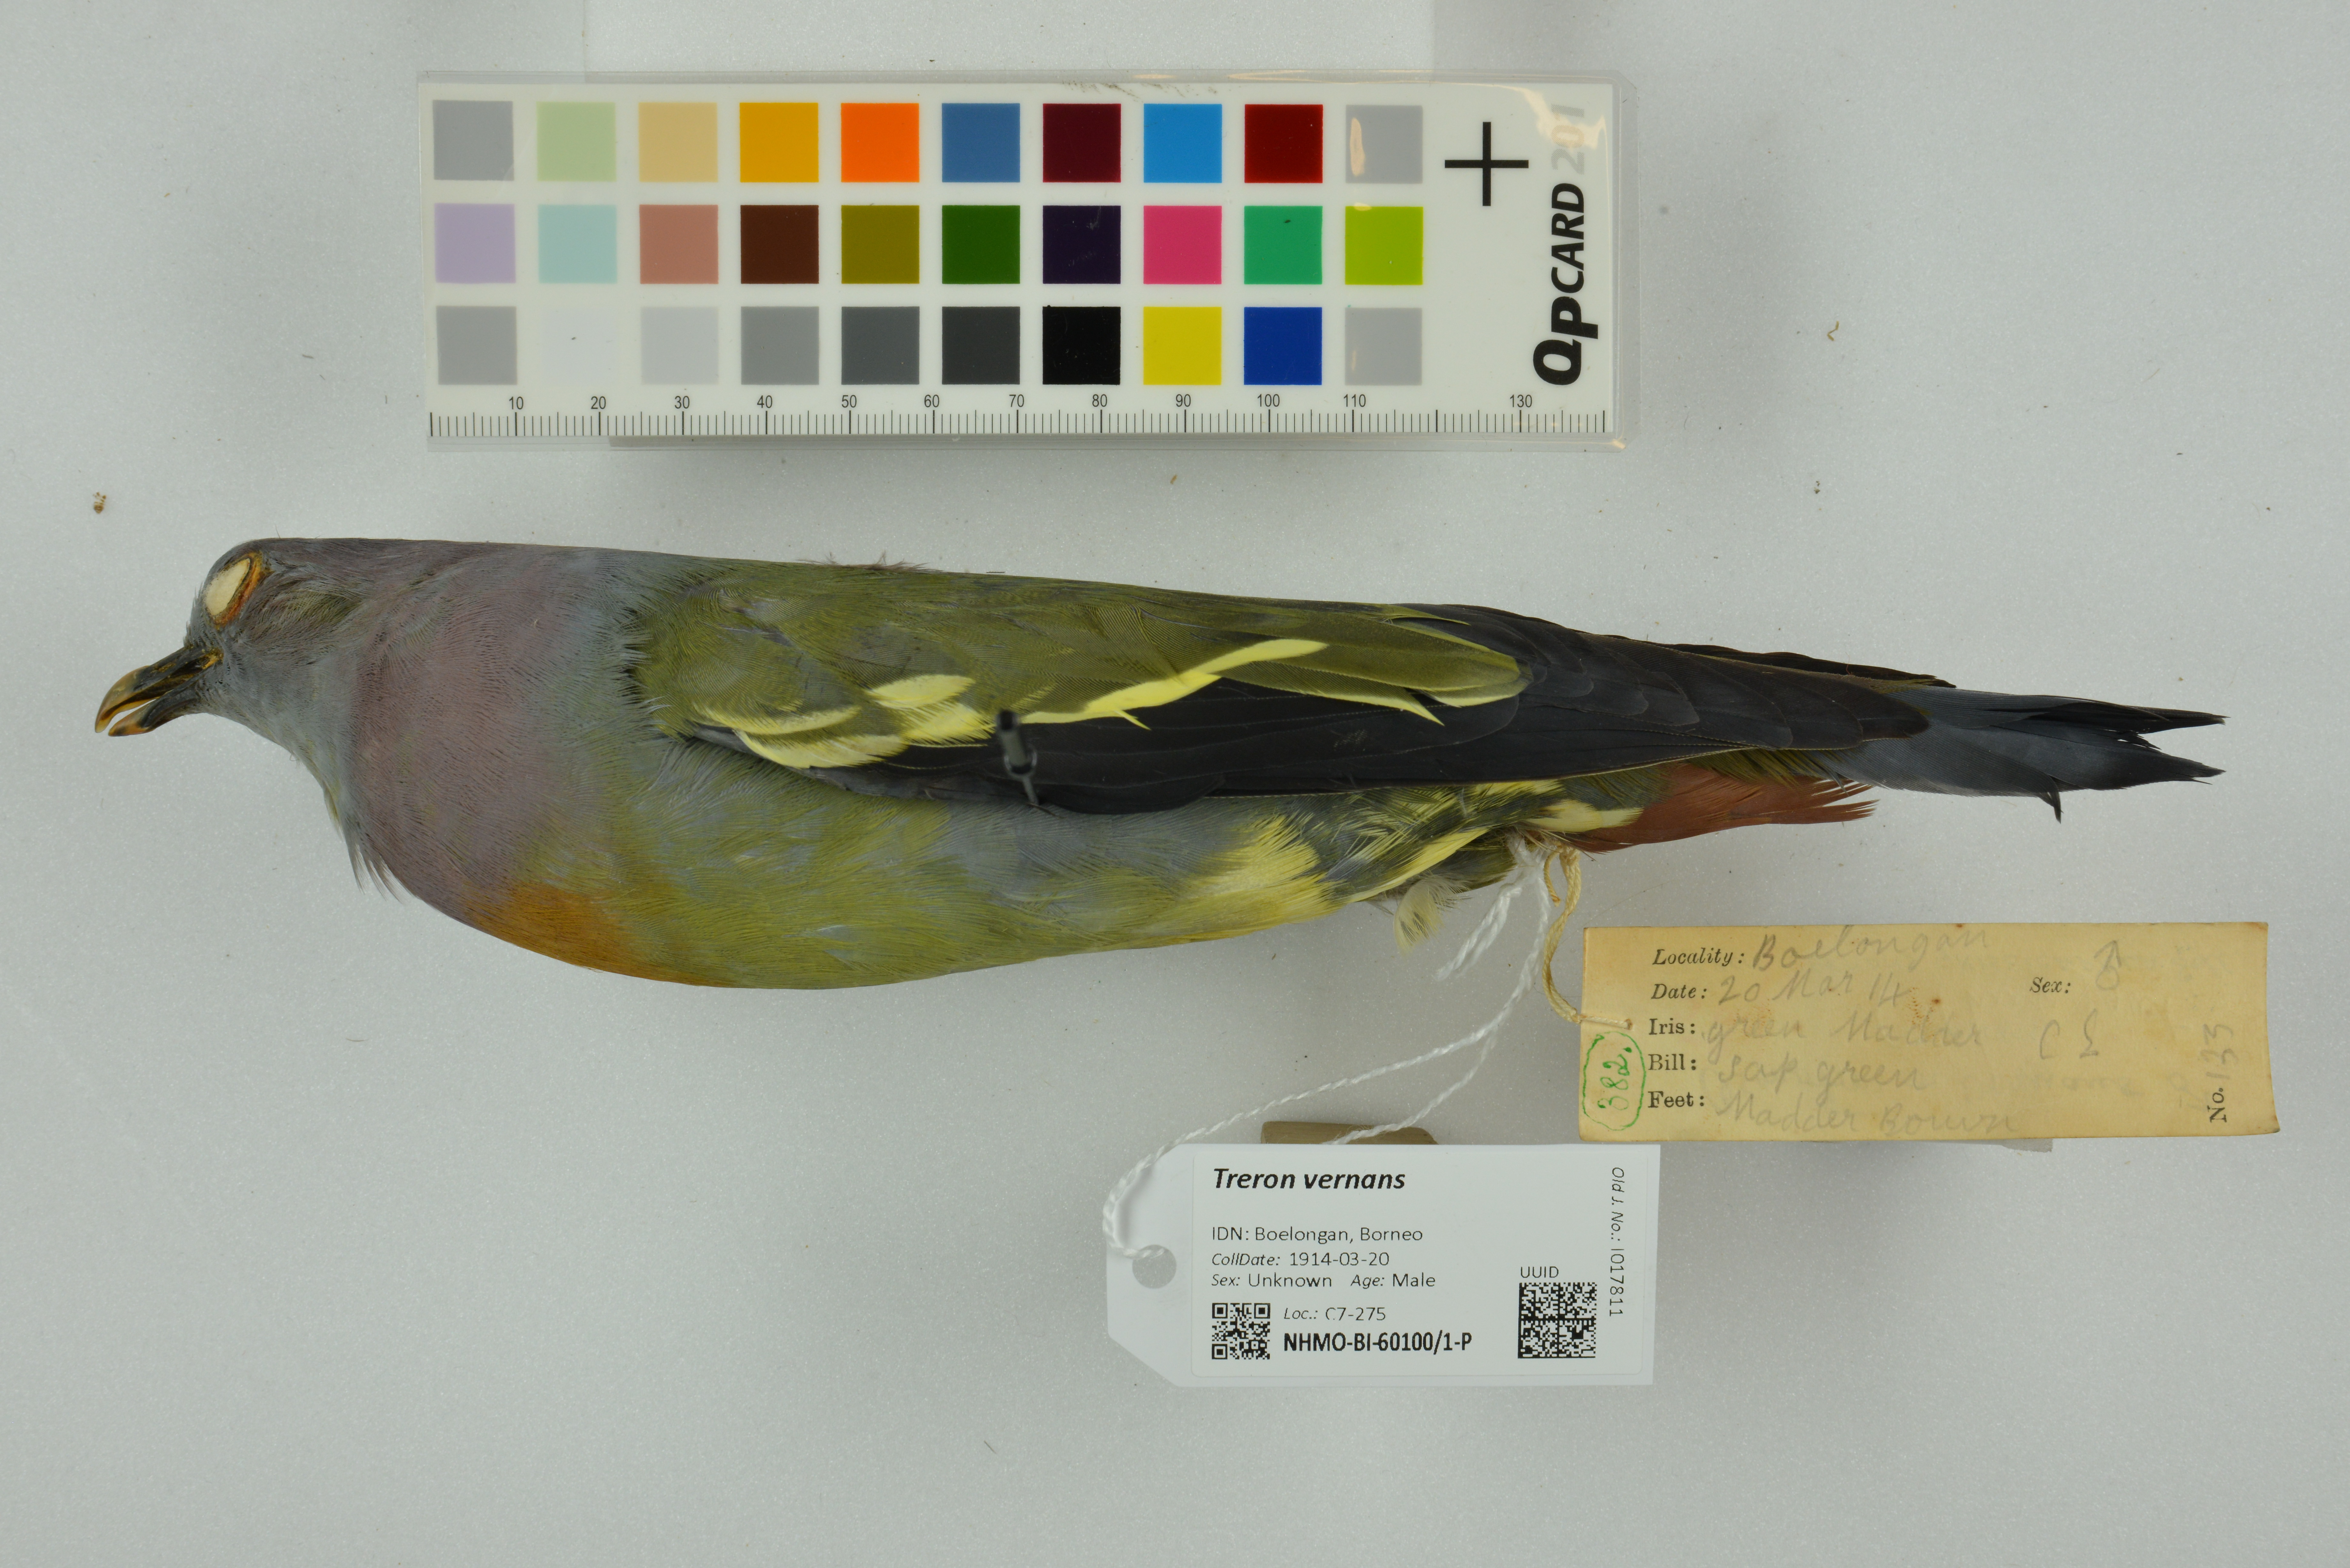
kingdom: Animalia
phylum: Chordata
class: Aves
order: Columbiformes
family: Columbidae
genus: Treron
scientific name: Treron vernans
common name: Pink-necked green pigeon
